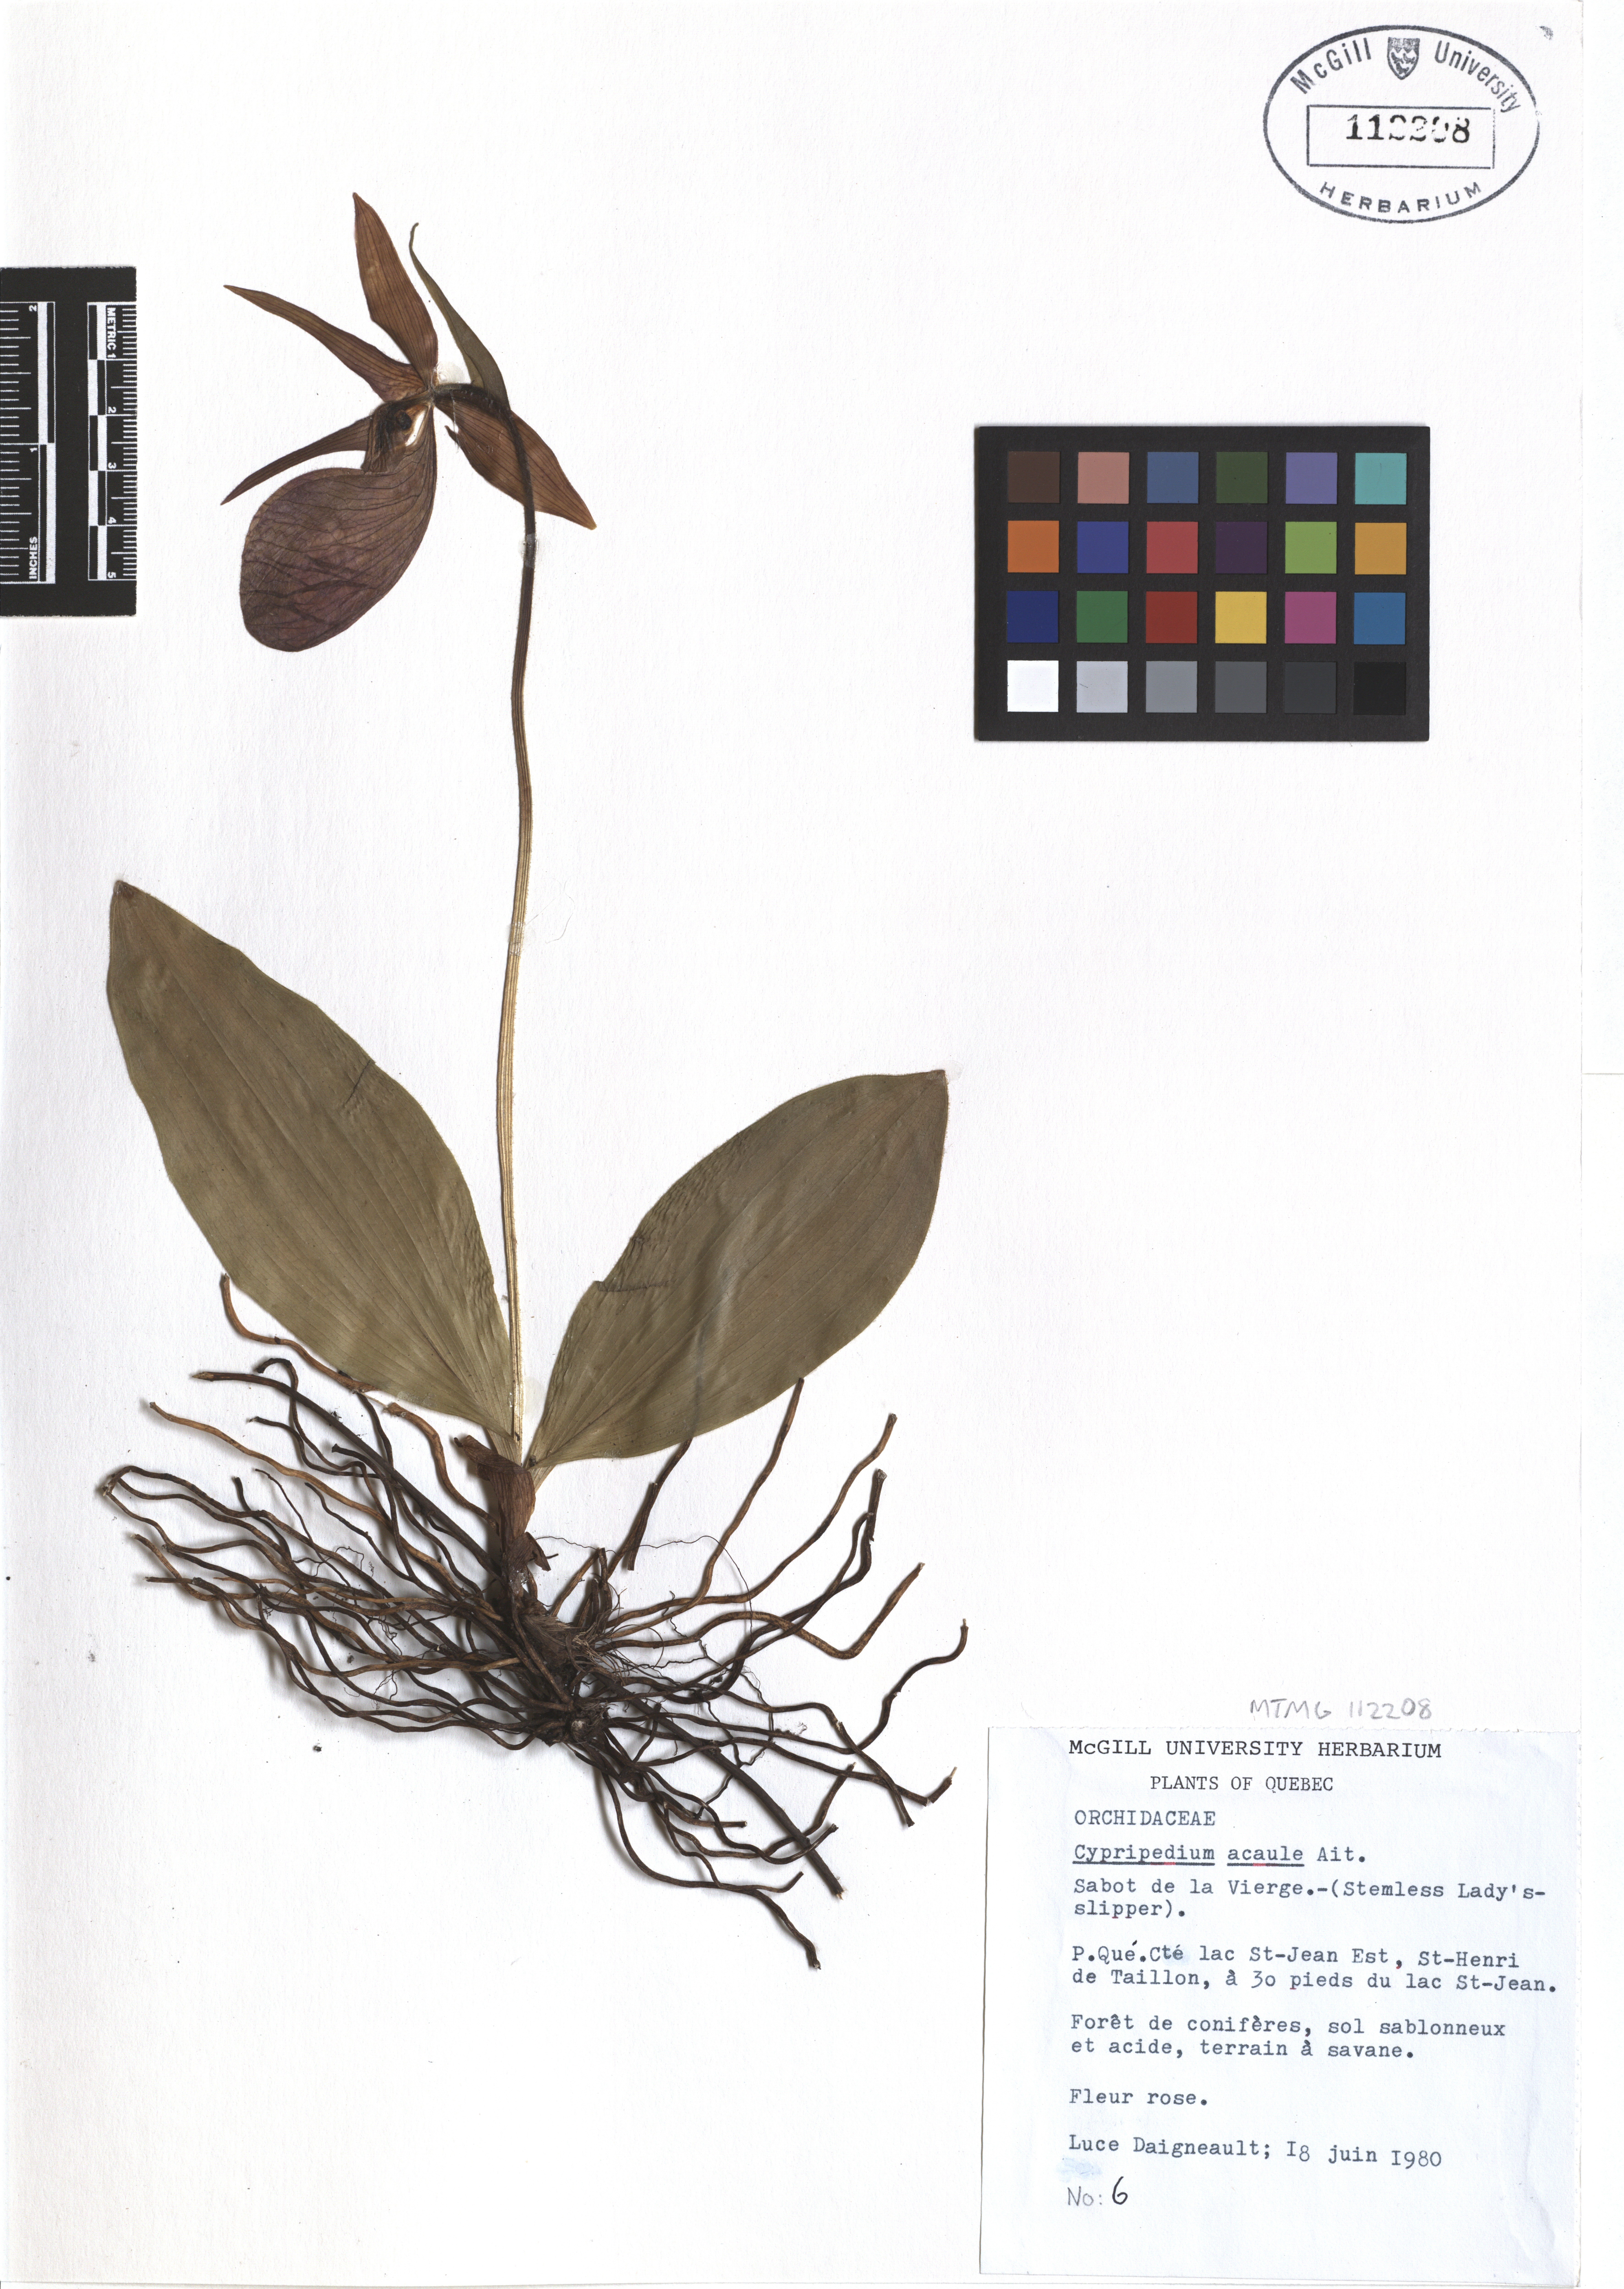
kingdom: Plantae
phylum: Tracheophyta
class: Liliopsida
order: Asparagales
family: Orchidaceae
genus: Cypripedium
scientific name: Cypripedium acaule
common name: Pink lady's-slipper
